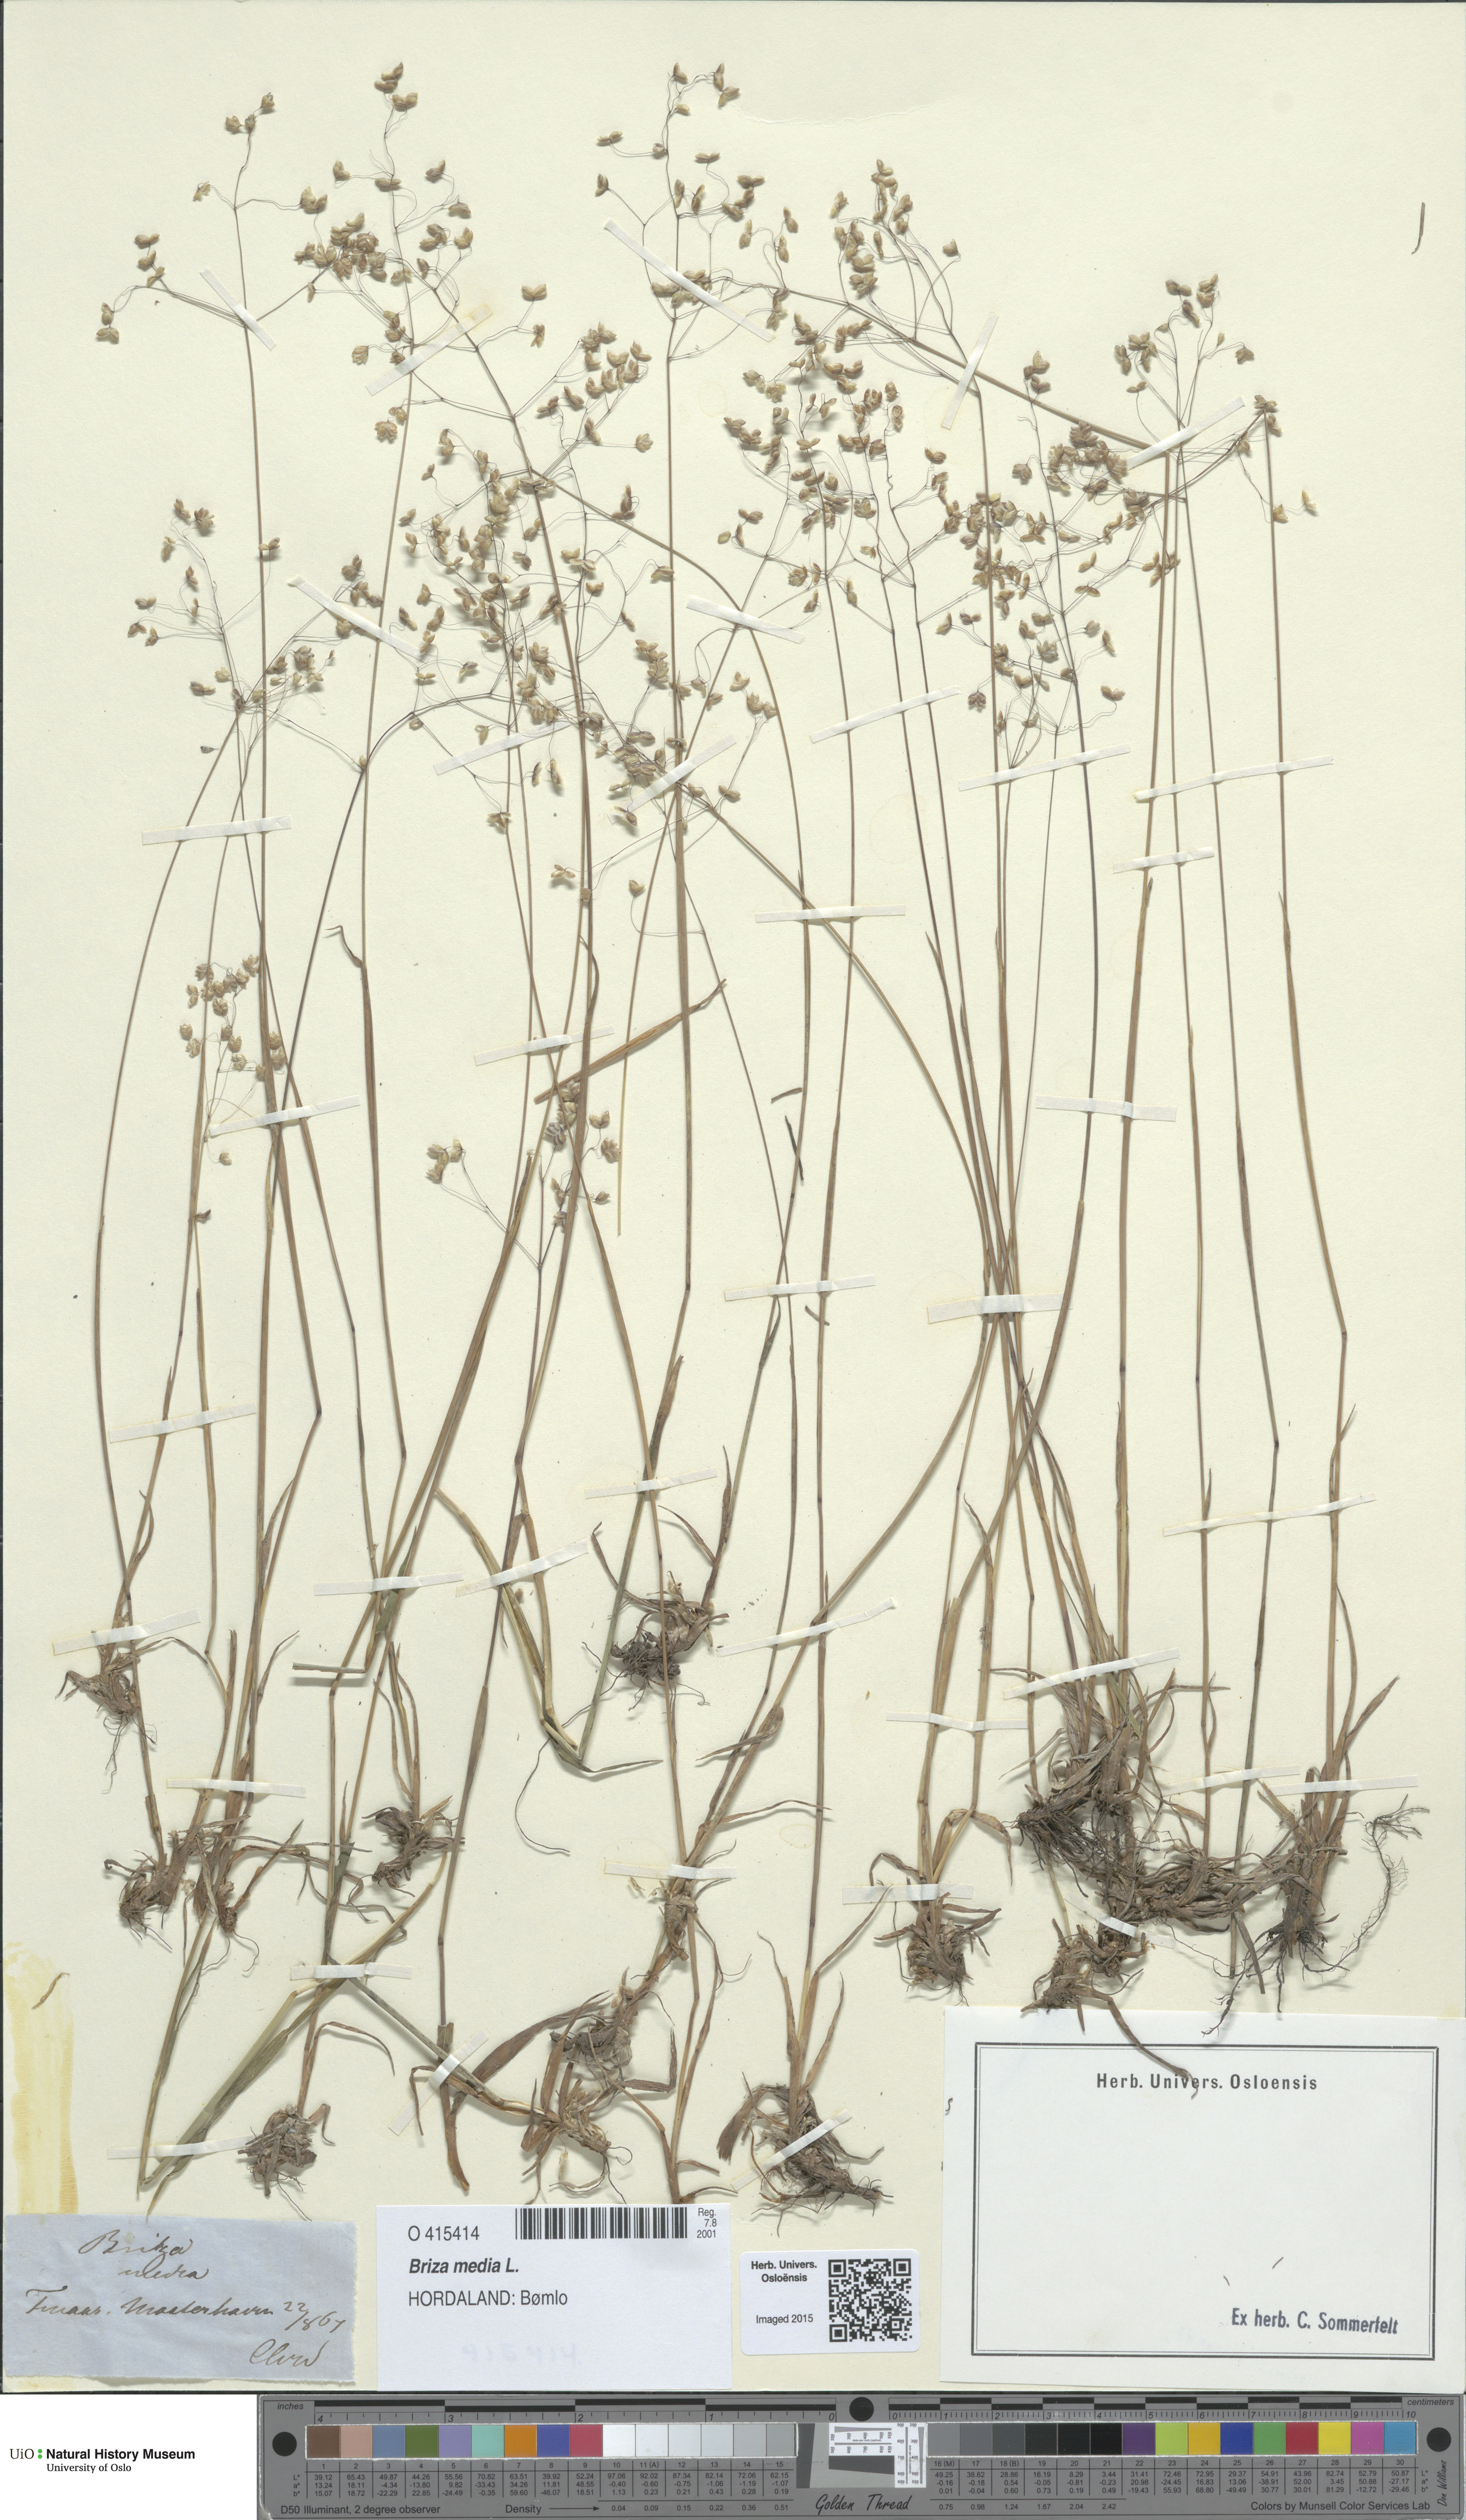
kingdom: Plantae
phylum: Tracheophyta
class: Liliopsida
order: Poales
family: Poaceae
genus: Briza
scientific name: Briza media
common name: Quaking grass
